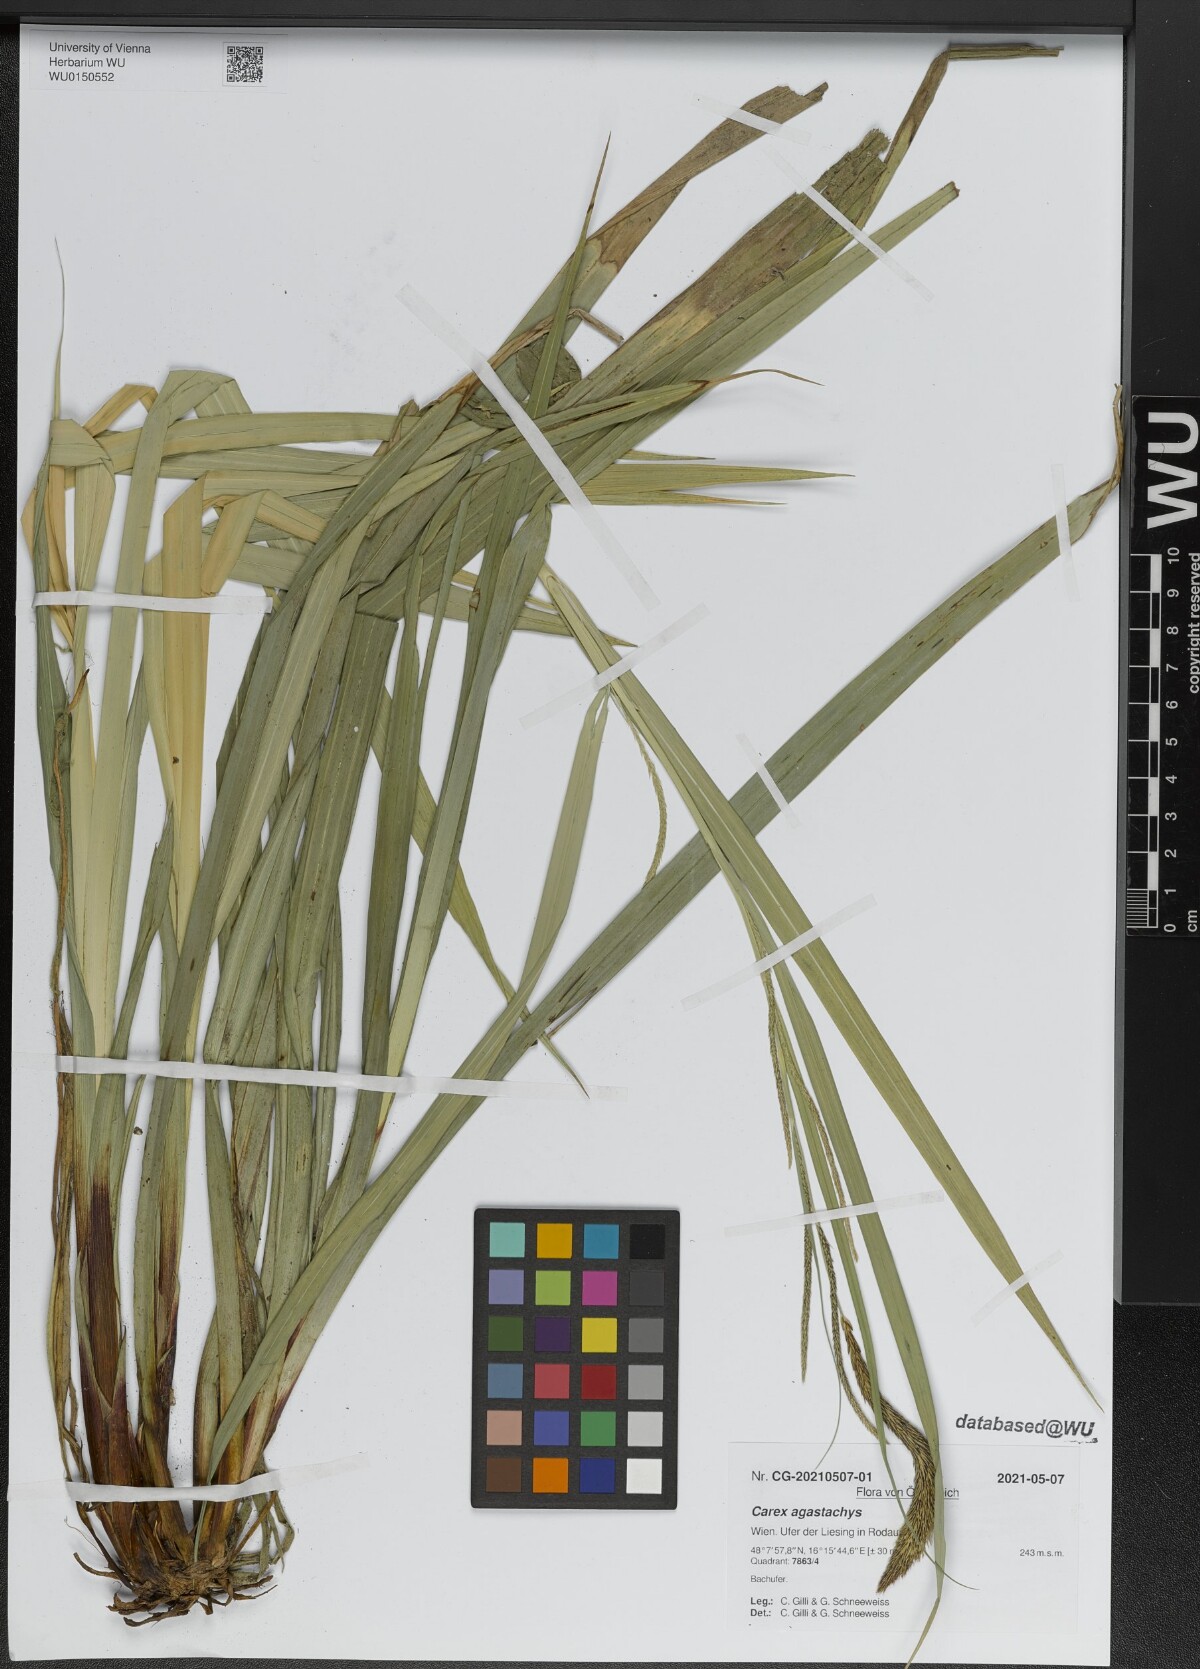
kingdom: Plantae
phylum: Tracheophyta
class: Liliopsida
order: Poales
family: Cyperaceae
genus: Carex
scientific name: Carex agastachys
